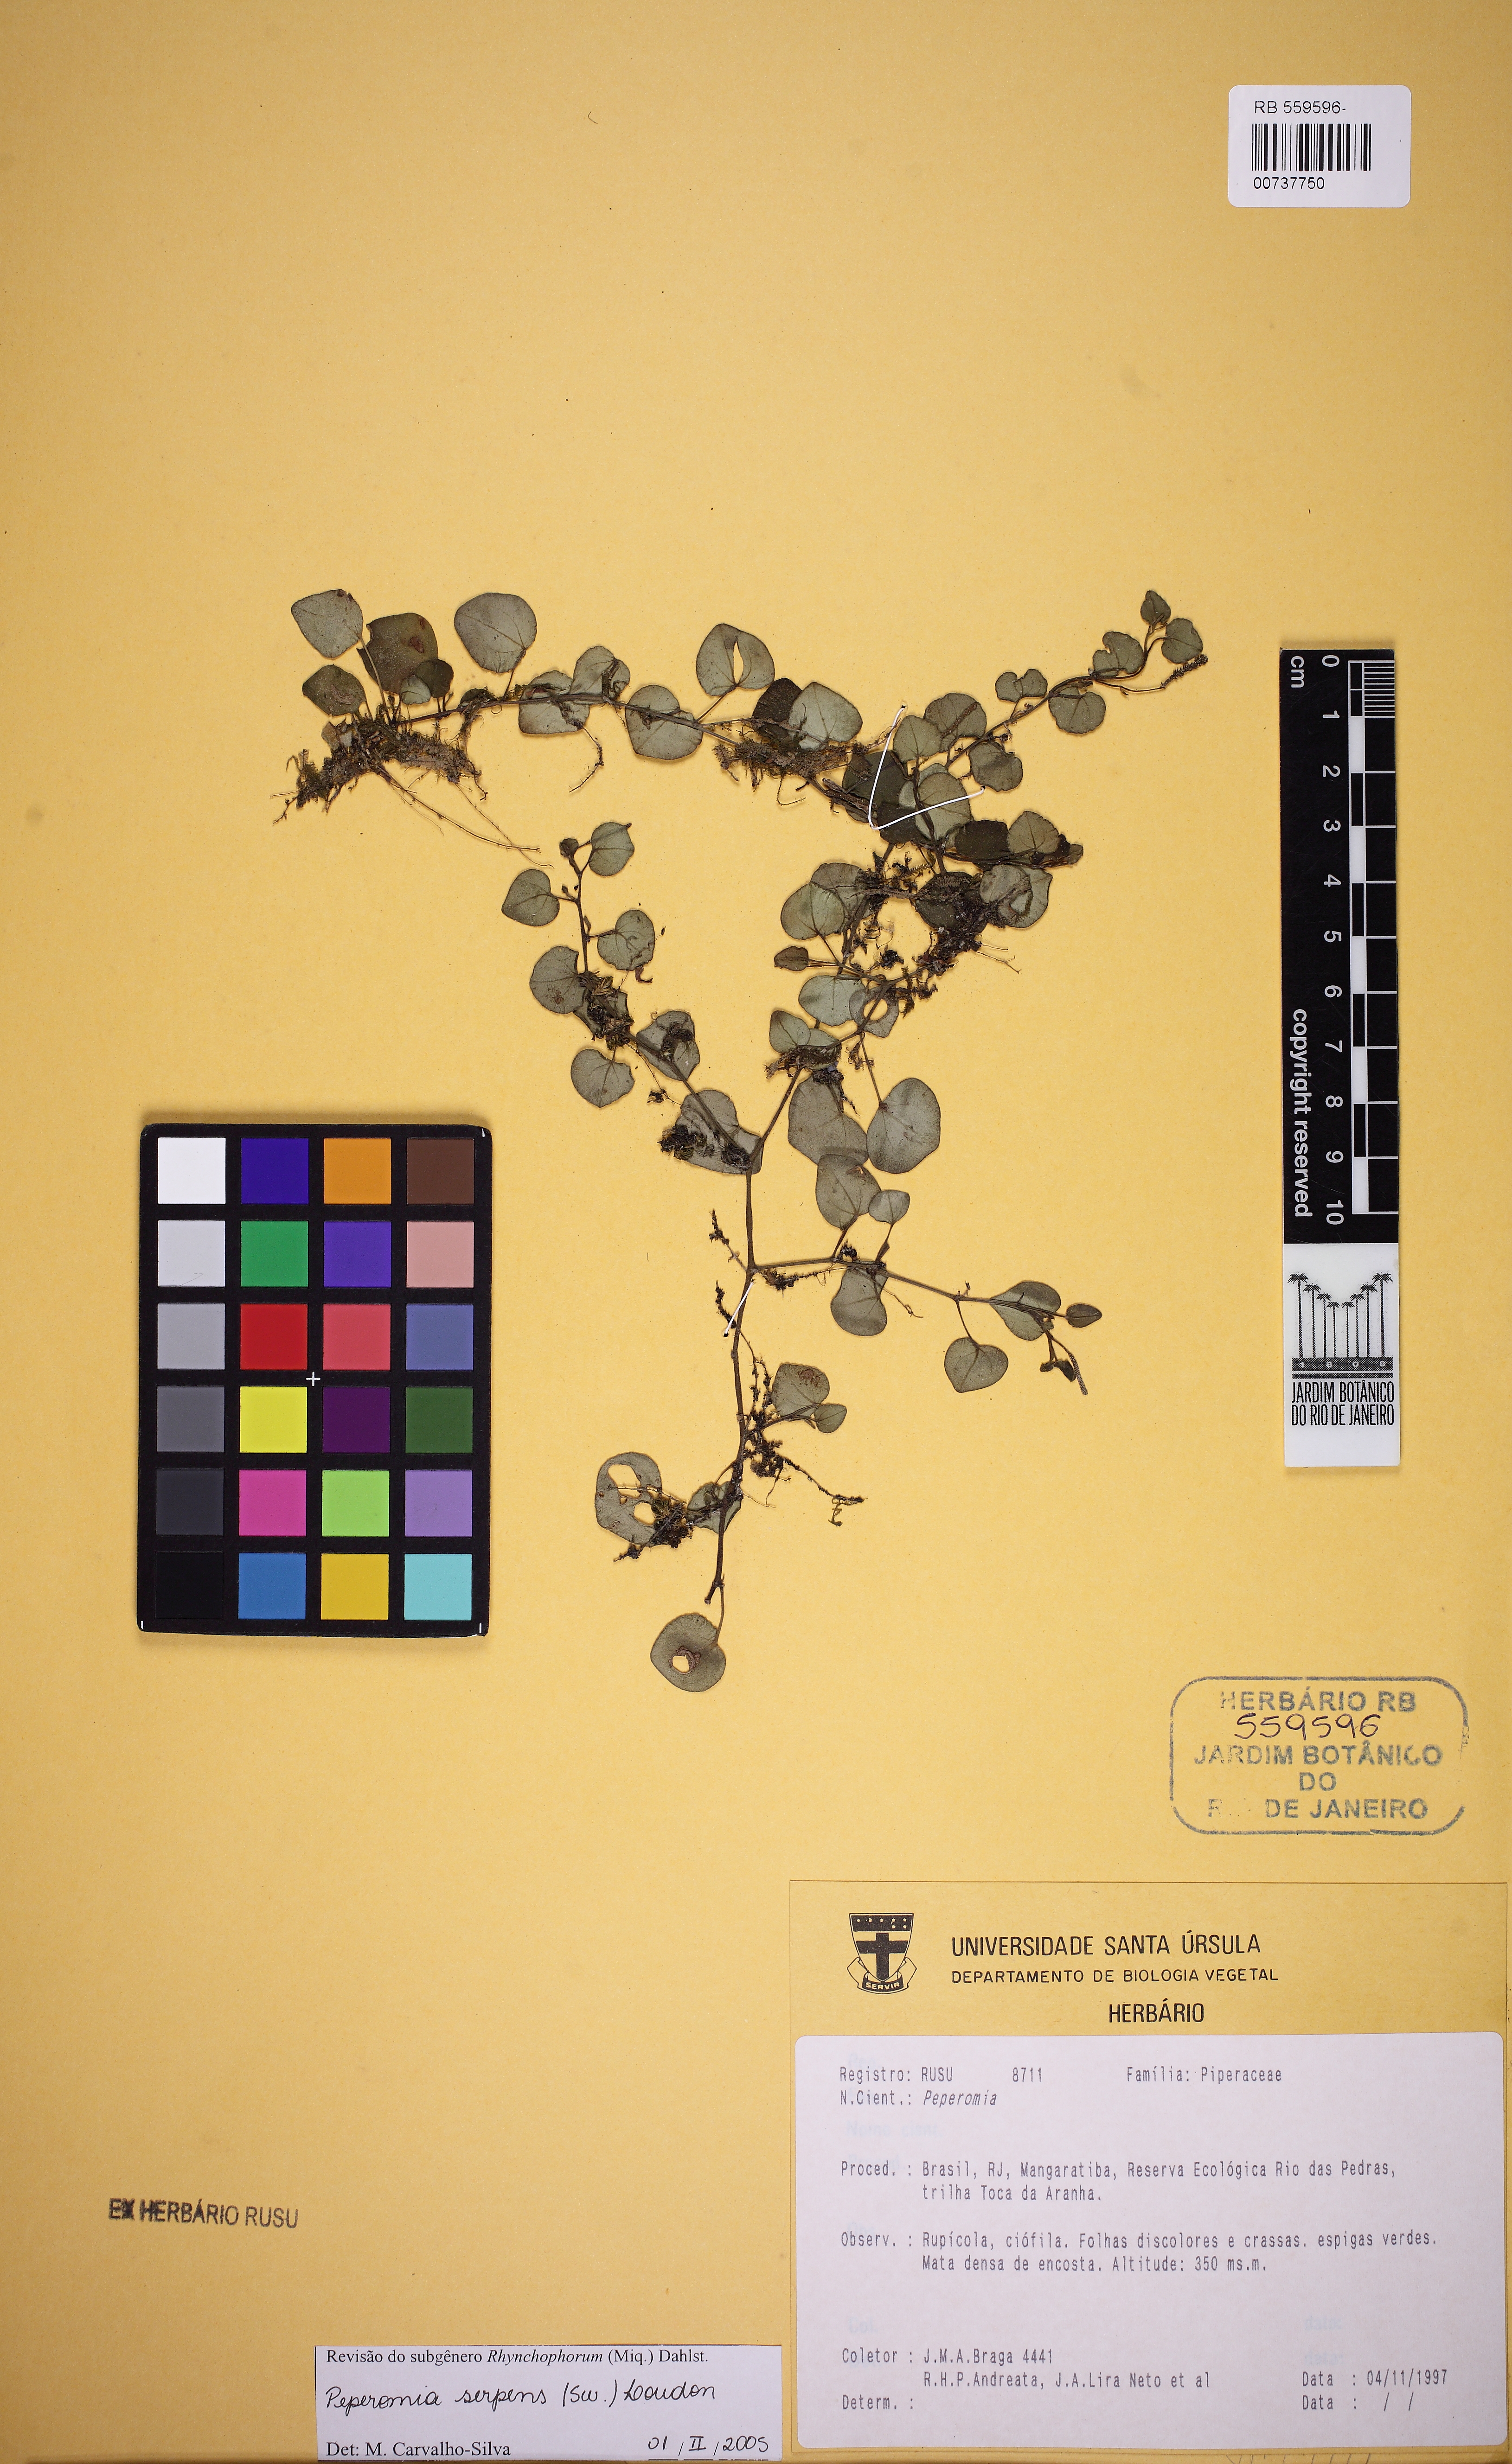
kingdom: Plantae
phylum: Tracheophyta
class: Magnoliopsida
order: Piperales
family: Piperaceae
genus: Peperomia
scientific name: Peperomia serpens
